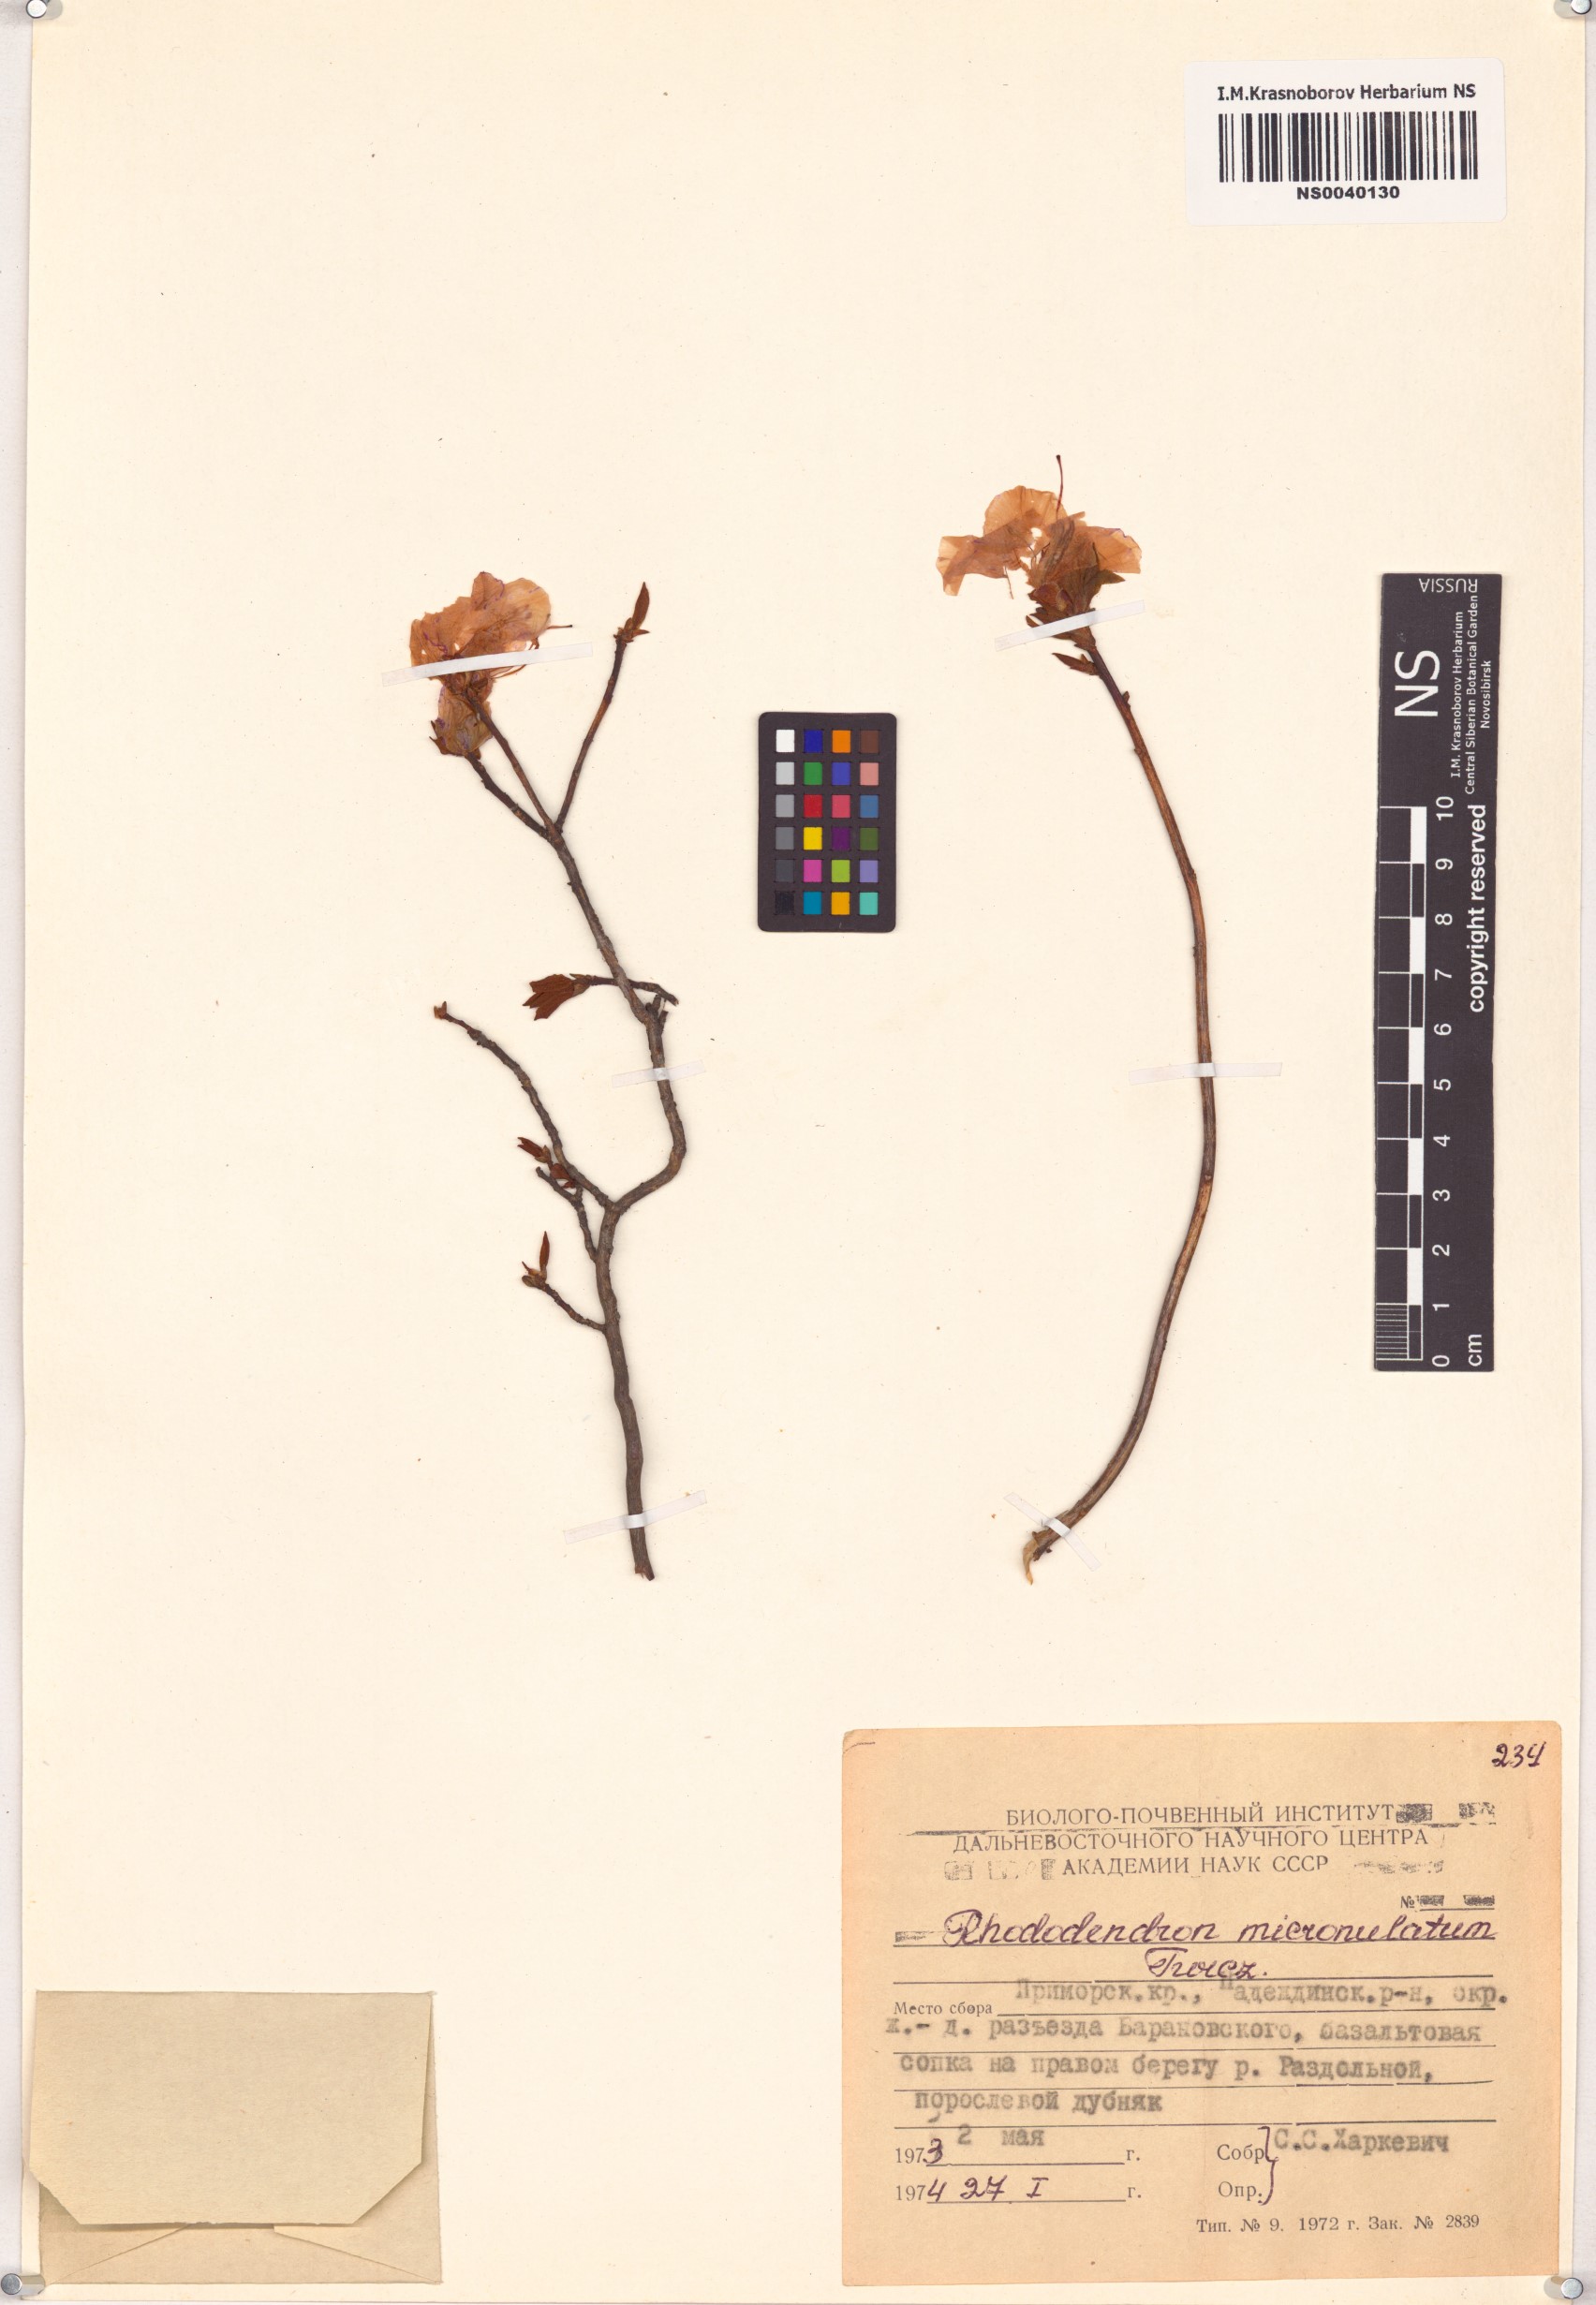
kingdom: Plantae
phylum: Tracheophyta
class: Magnoliopsida
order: Ericales
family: Ericaceae
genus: Rhododendron
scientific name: Rhododendron mucronulatum
